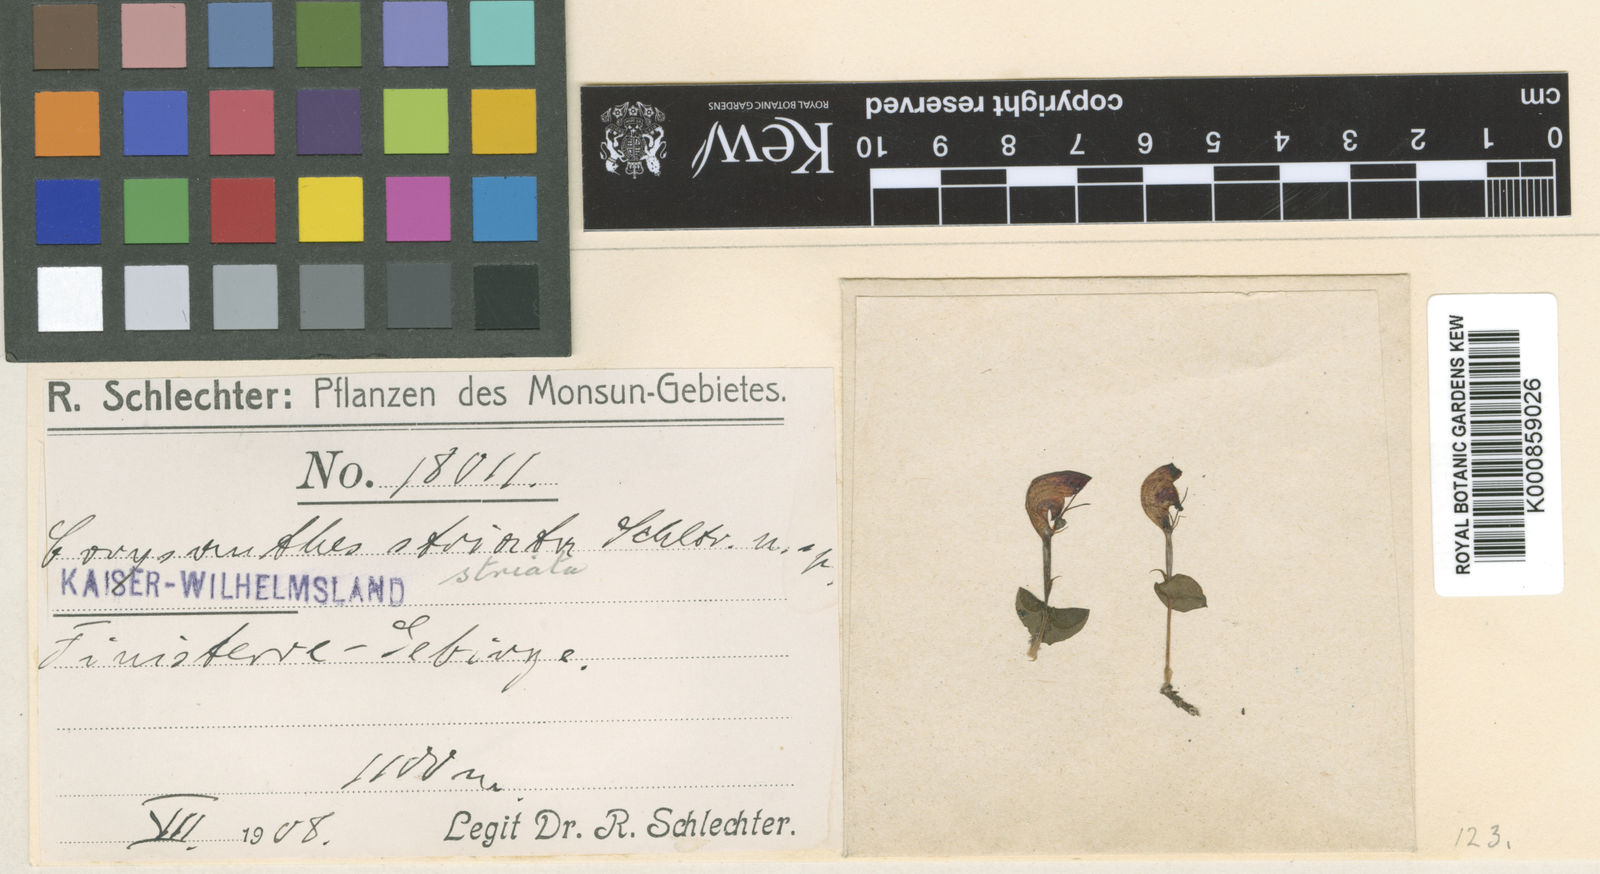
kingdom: Plantae
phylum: Tracheophyta
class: Liliopsida
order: Asparagales
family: Orchidaceae
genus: Corybas
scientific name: Corybas striatus
